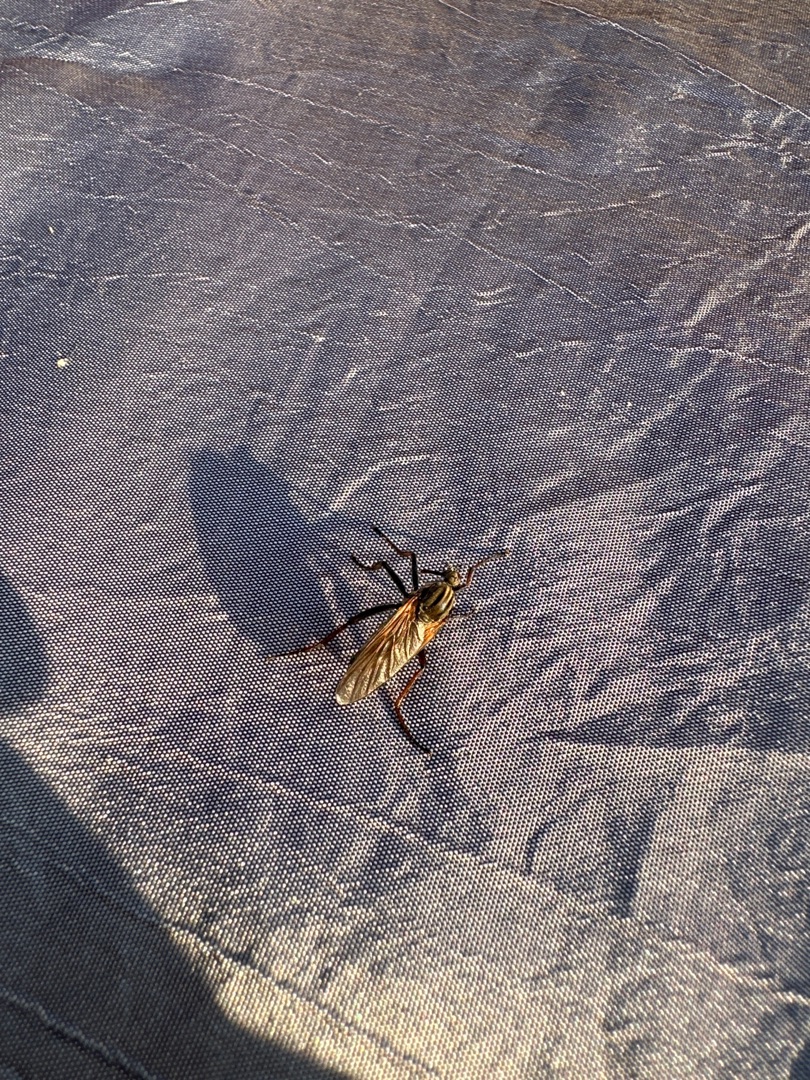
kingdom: Animalia
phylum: Arthropoda
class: Insecta
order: Diptera
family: Empididae
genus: Empis
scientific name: Empis tessellata
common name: Stor danseflue
